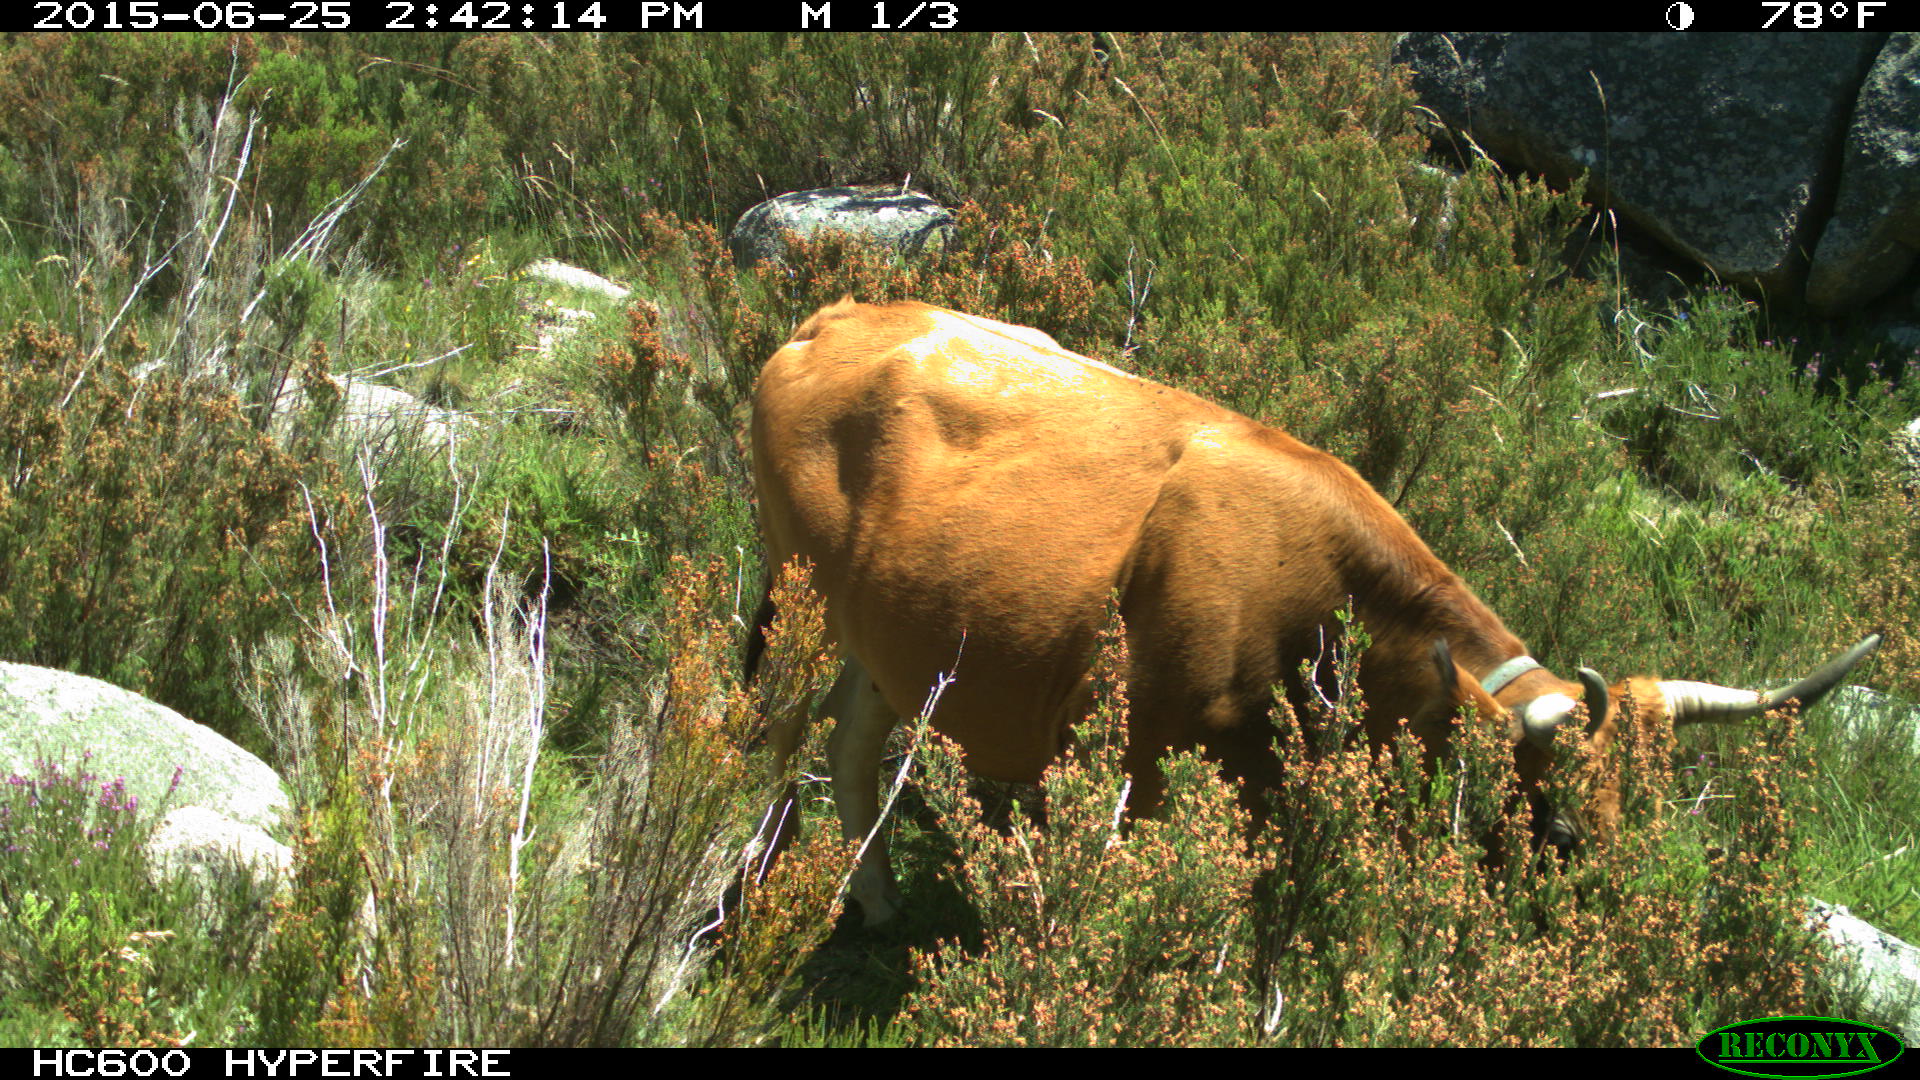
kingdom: Animalia
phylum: Chordata
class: Mammalia
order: Artiodactyla
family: Bovidae
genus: Bos
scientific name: Bos taurus
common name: Domesticated cattle
